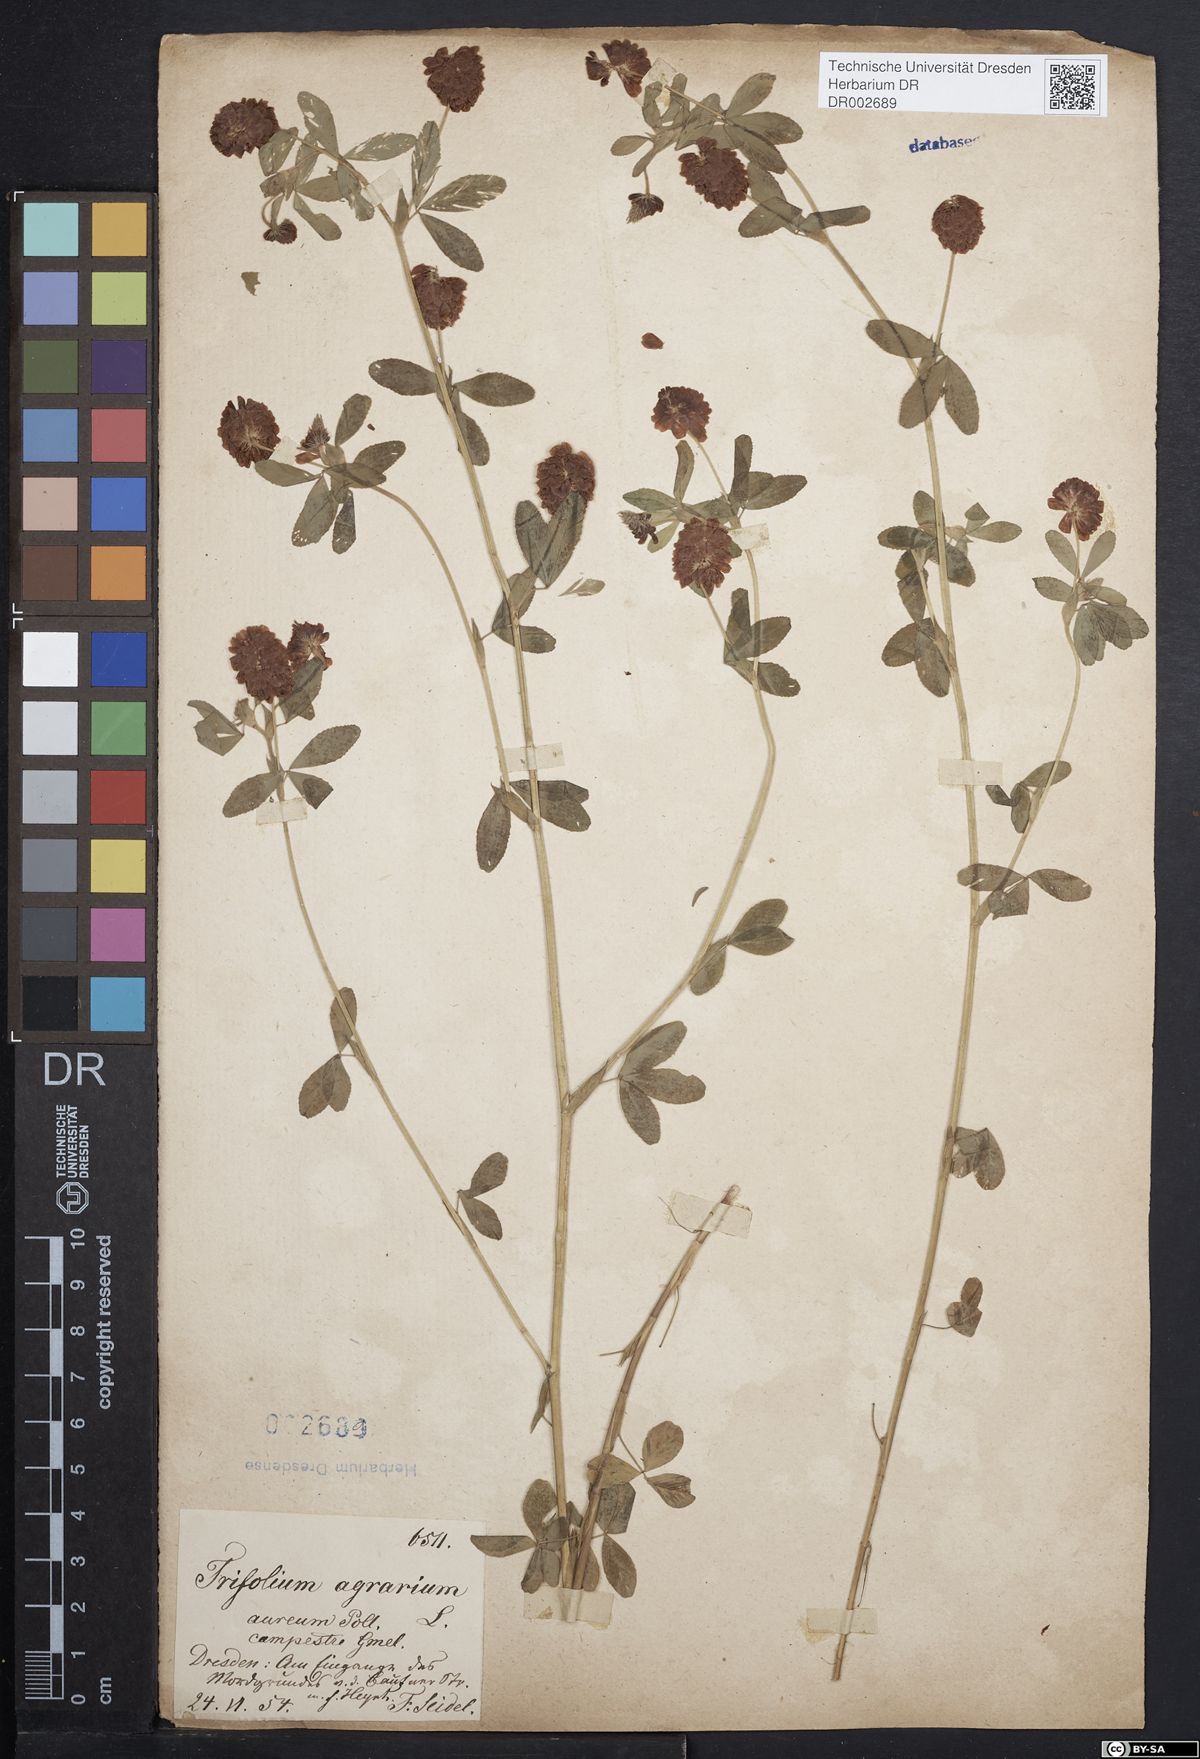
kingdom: Plantae
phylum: Tracheophyta
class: Magnoliopsida
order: Fabales
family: Fabaceae
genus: Trifolium
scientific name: Trifolium aureum
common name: Golden clover
